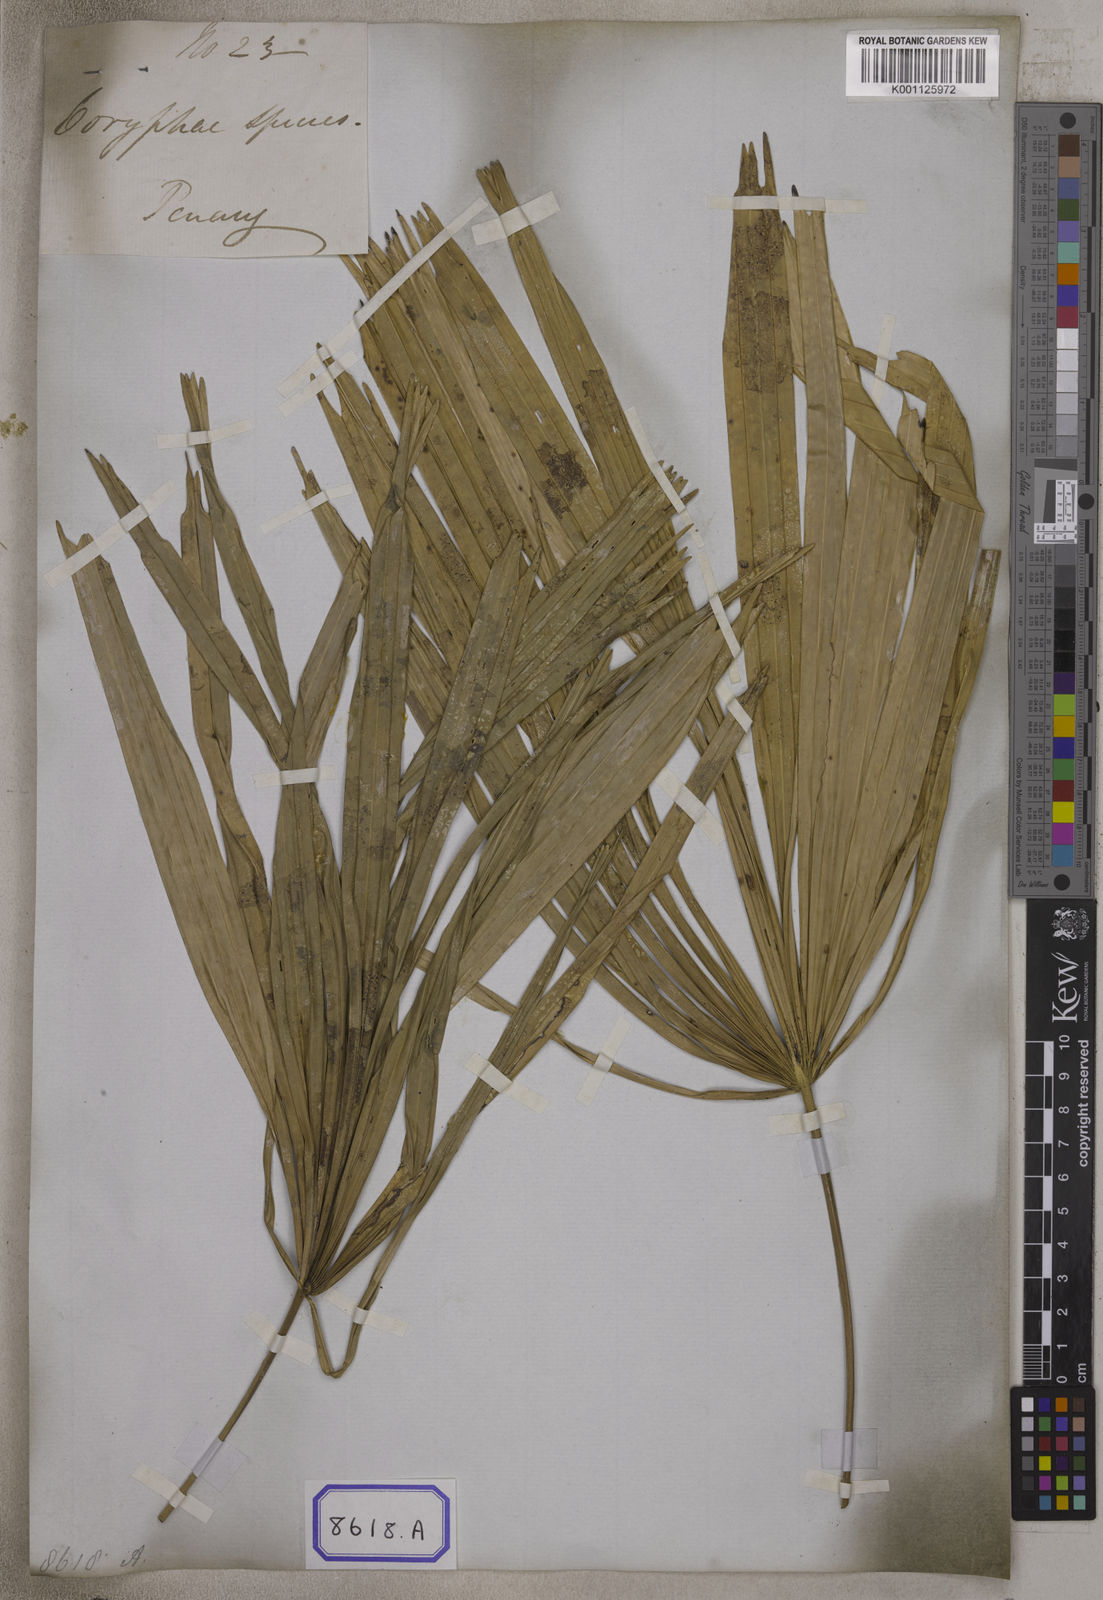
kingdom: Plantae
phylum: Tracheophyta
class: Liliopsida
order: Arecales
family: Arecaceae
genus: Licuala
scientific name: Licuala acutifida
